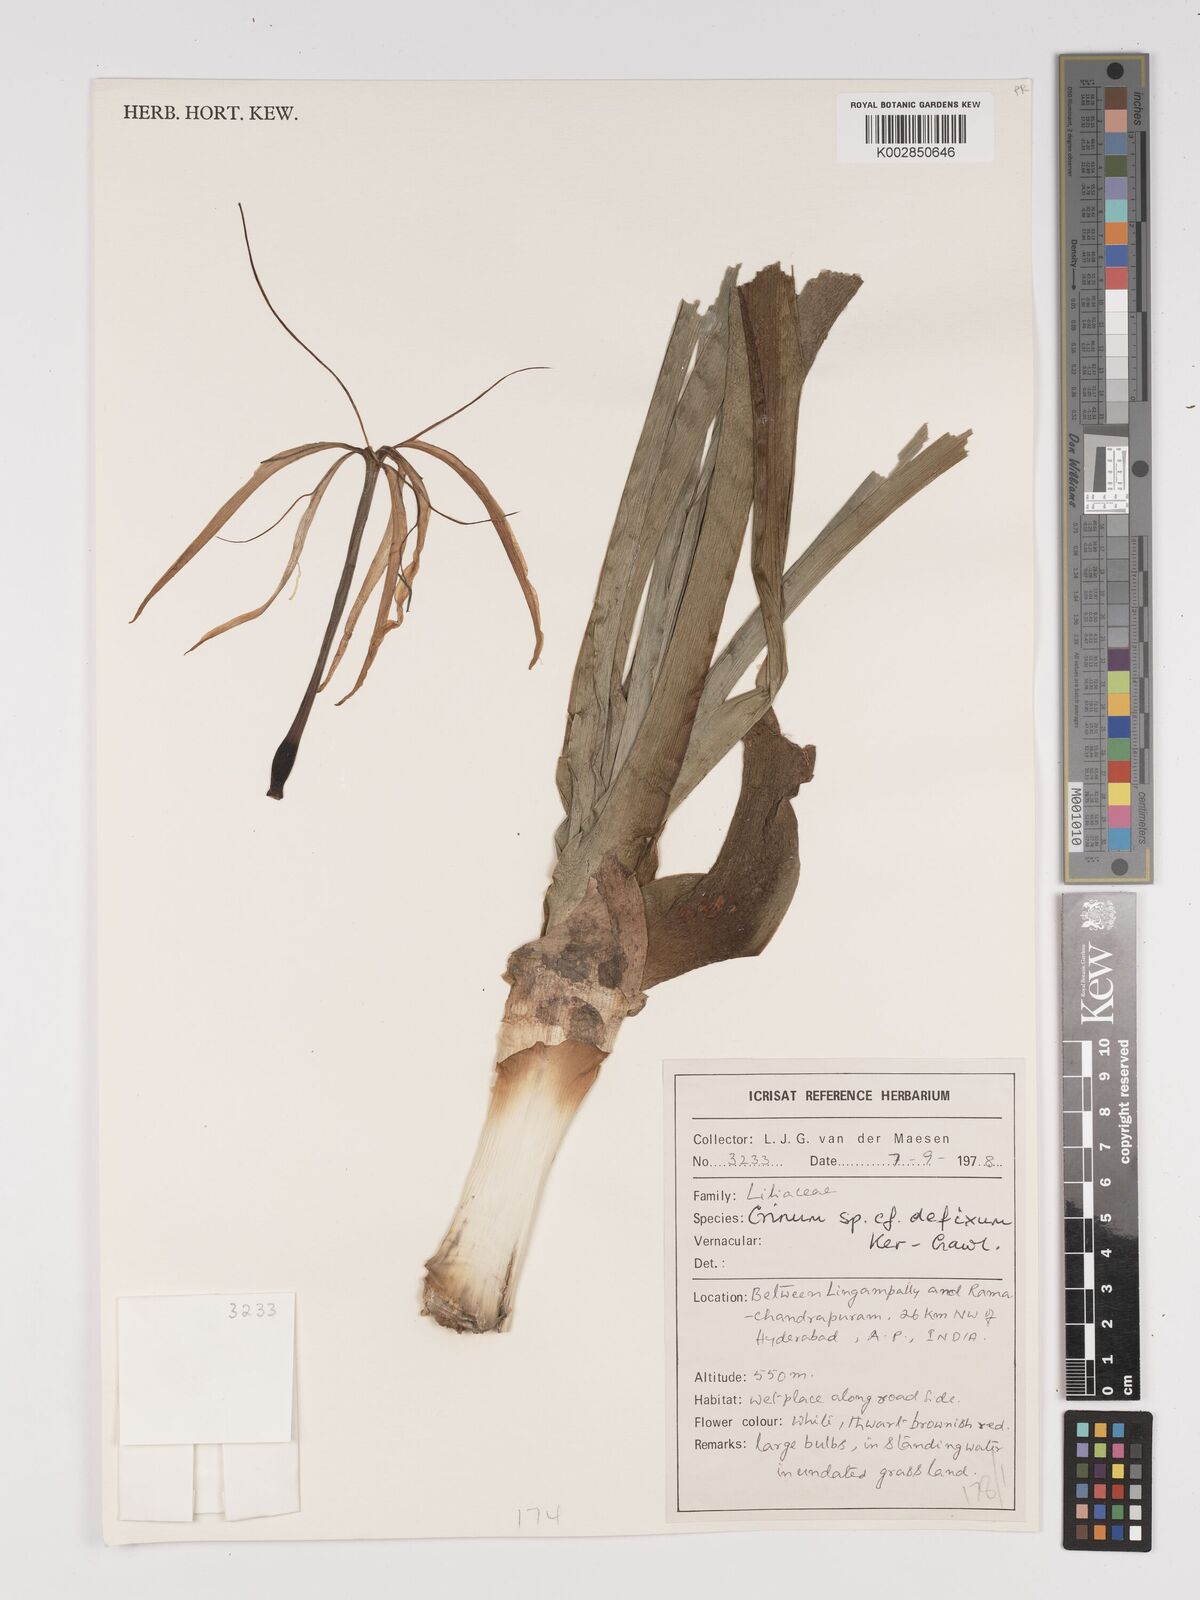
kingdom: Plantae
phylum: Tracheophyta
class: Liliopsida
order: Asparagales
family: Amaryllidaceae
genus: Crinum
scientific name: Crinum defixum
